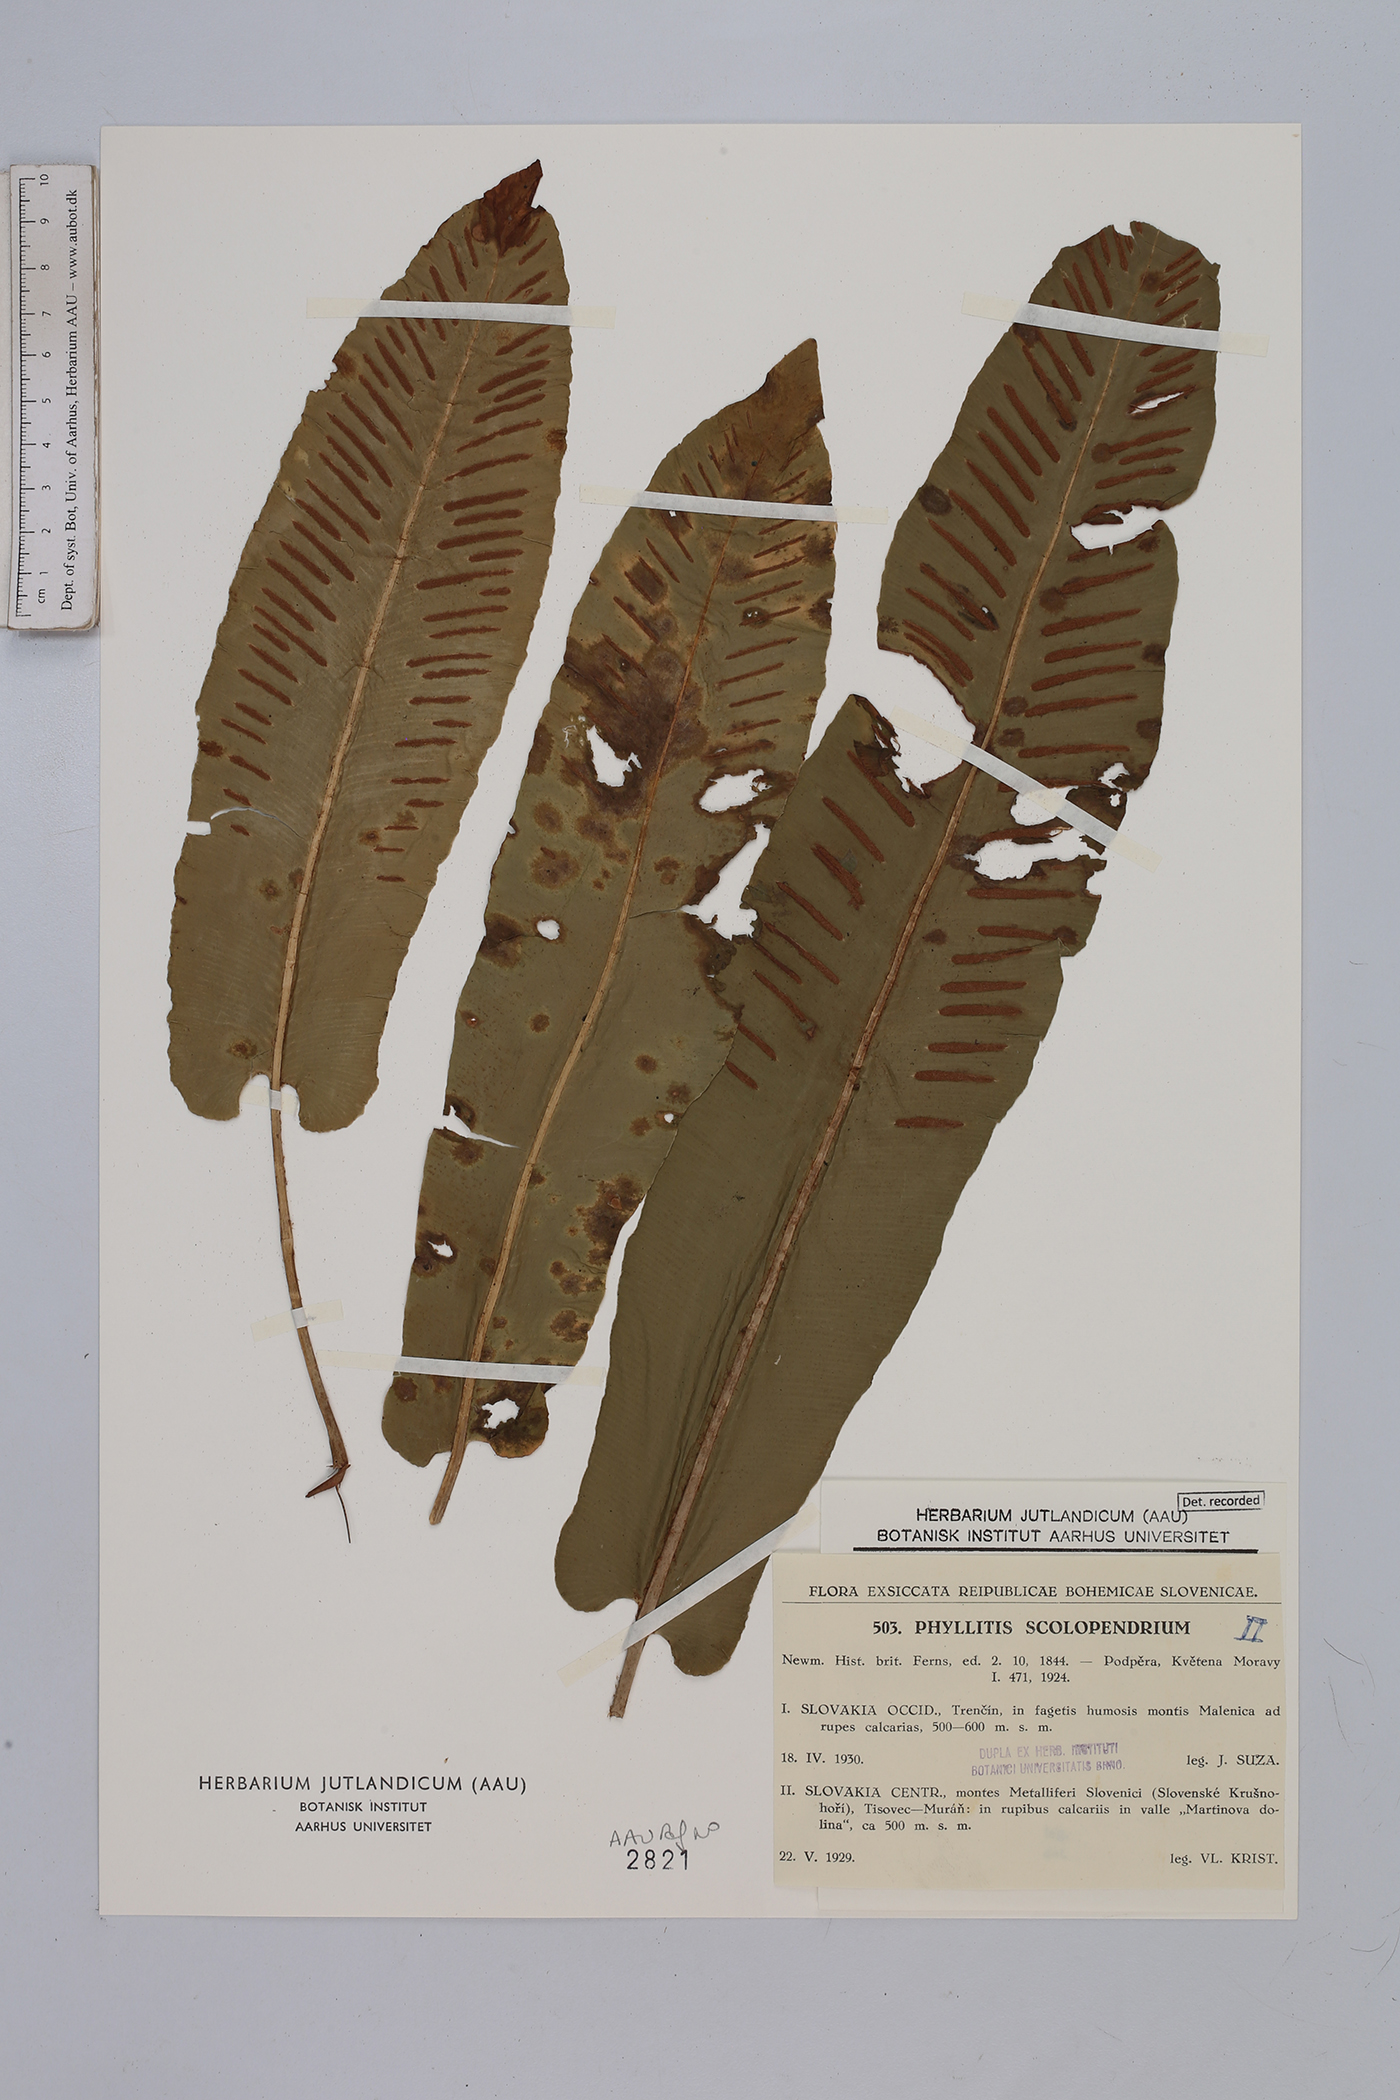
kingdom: Plantae
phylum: Tracheophyta
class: Polypodiopsida
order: Polypodiales
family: Aspleniaceae
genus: Asplenium
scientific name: Asplenium scolopendrium
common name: Hart's-tongue fern
